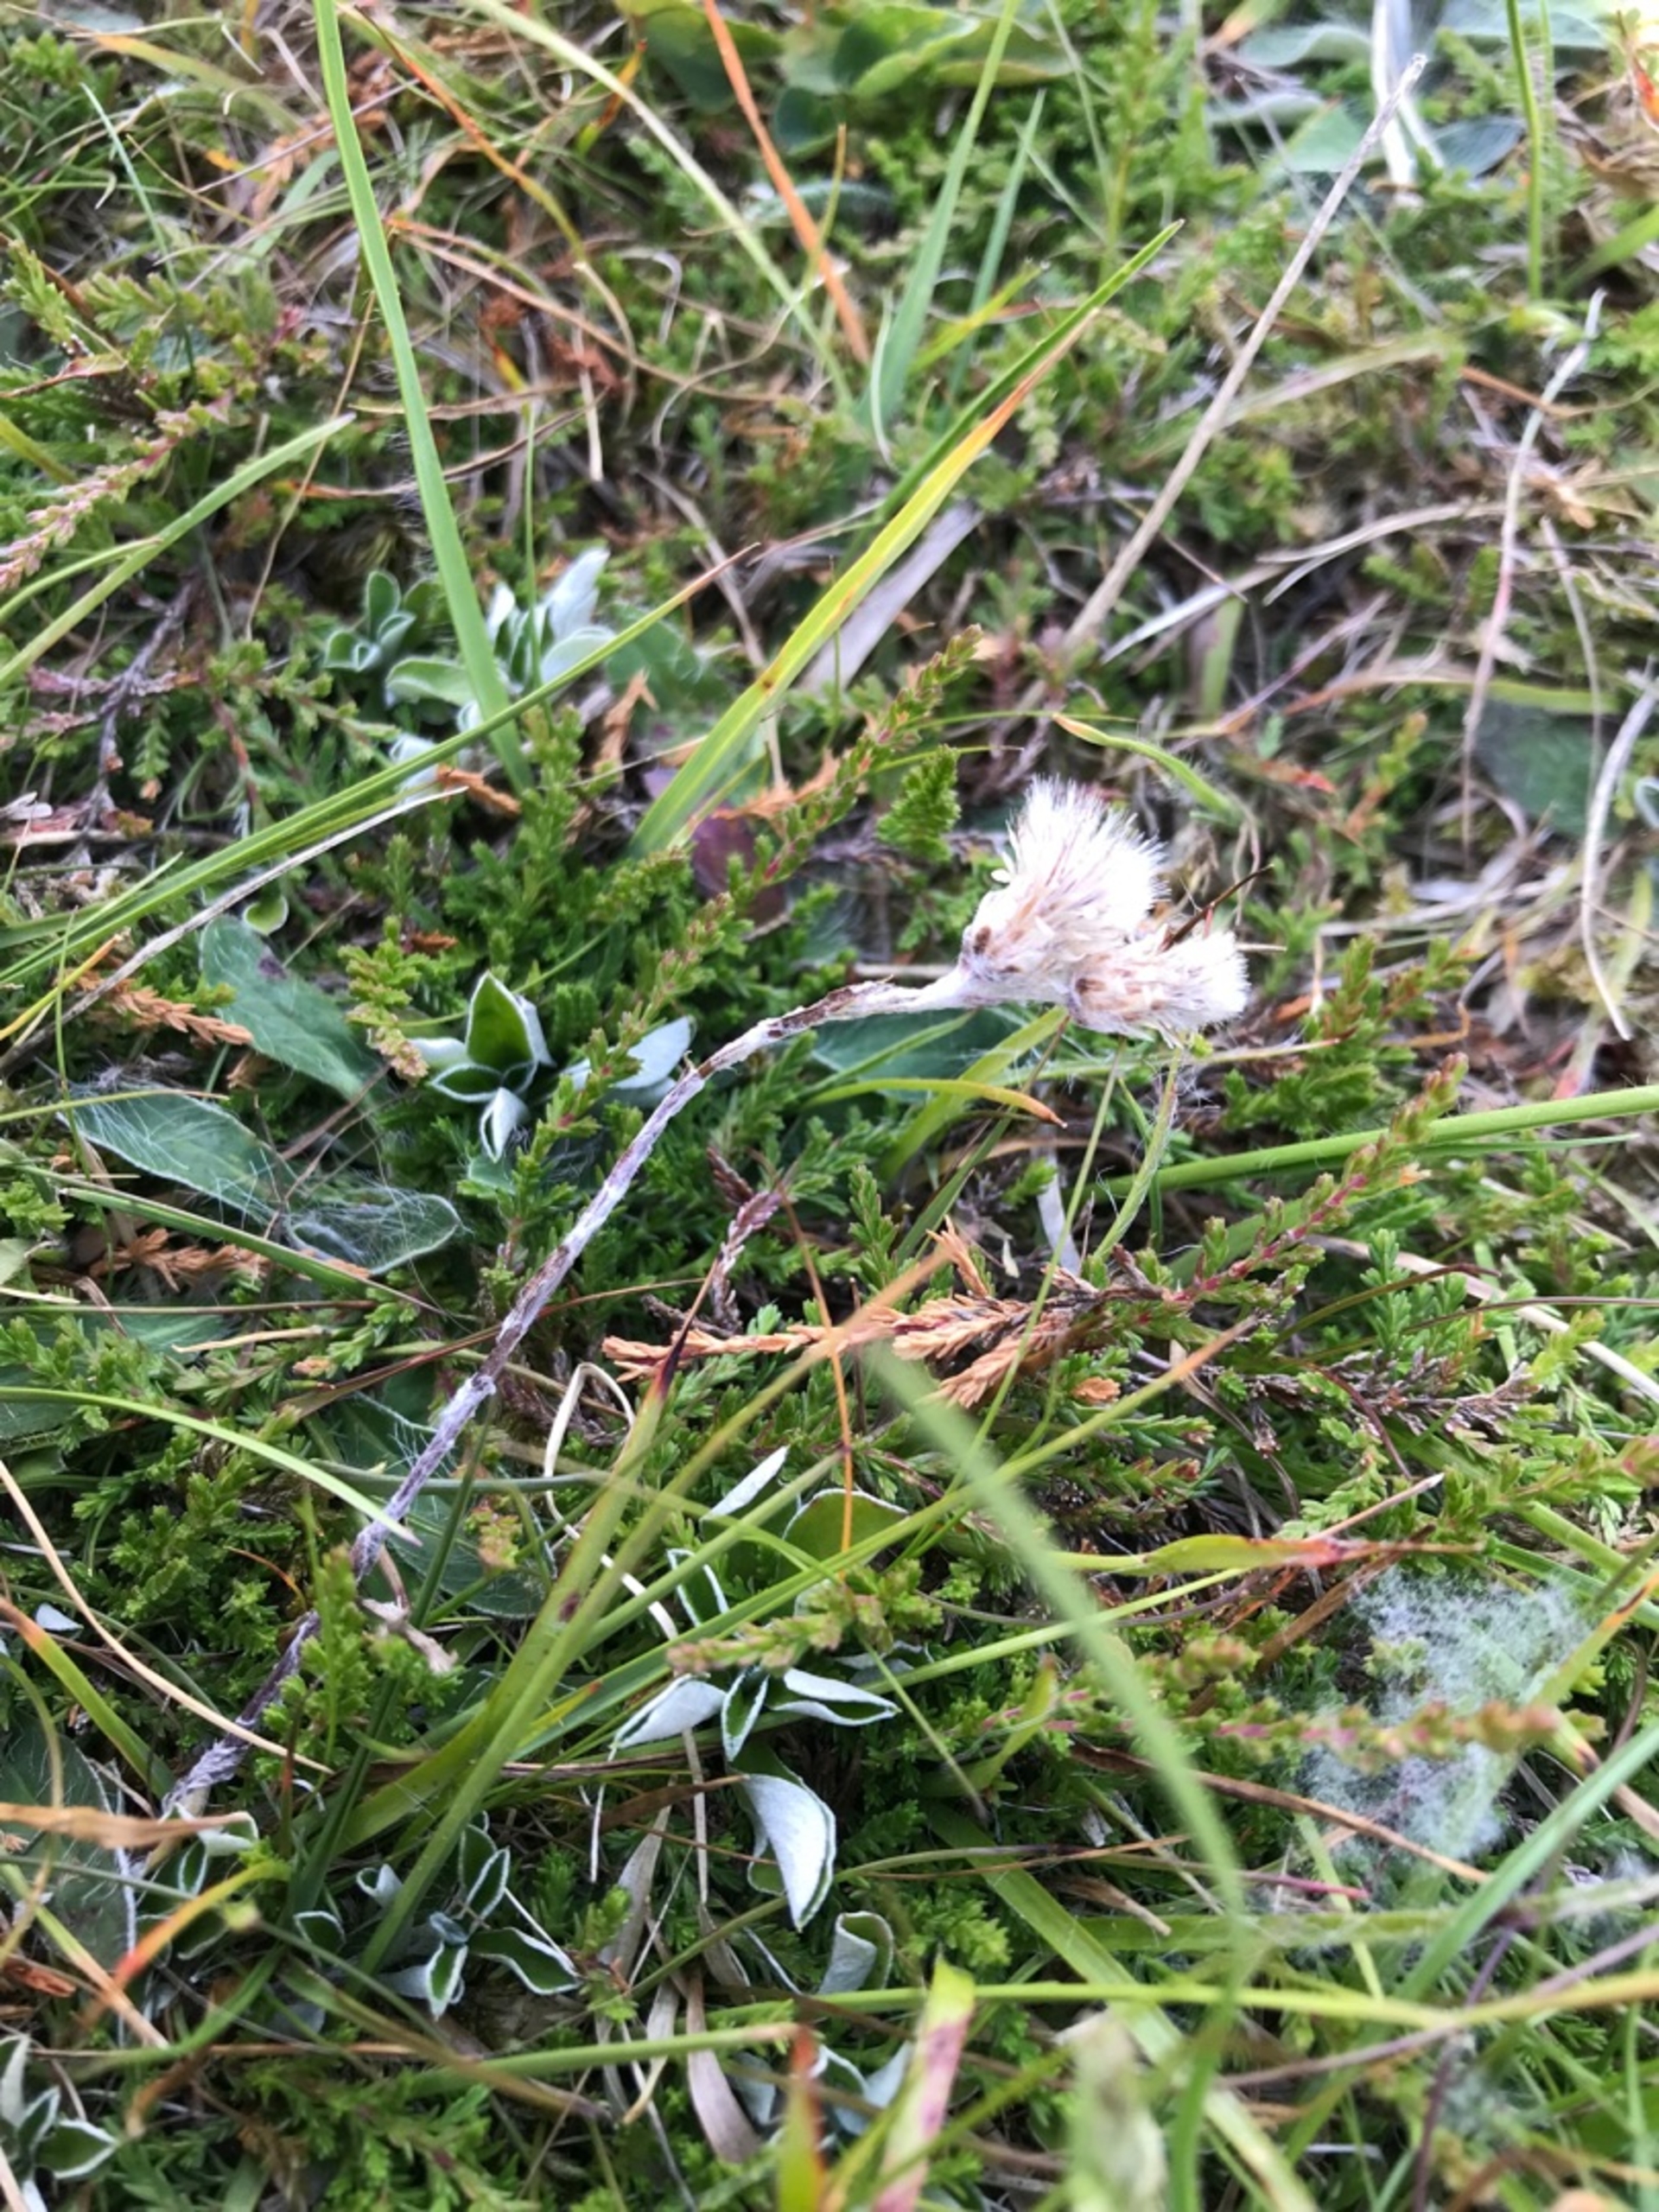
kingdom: Plantae
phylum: Tracheophyta
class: Magnoliopsida
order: Asterales
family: Asteraceae
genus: Antennaria
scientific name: Antennaria dioica
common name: Kattefod
